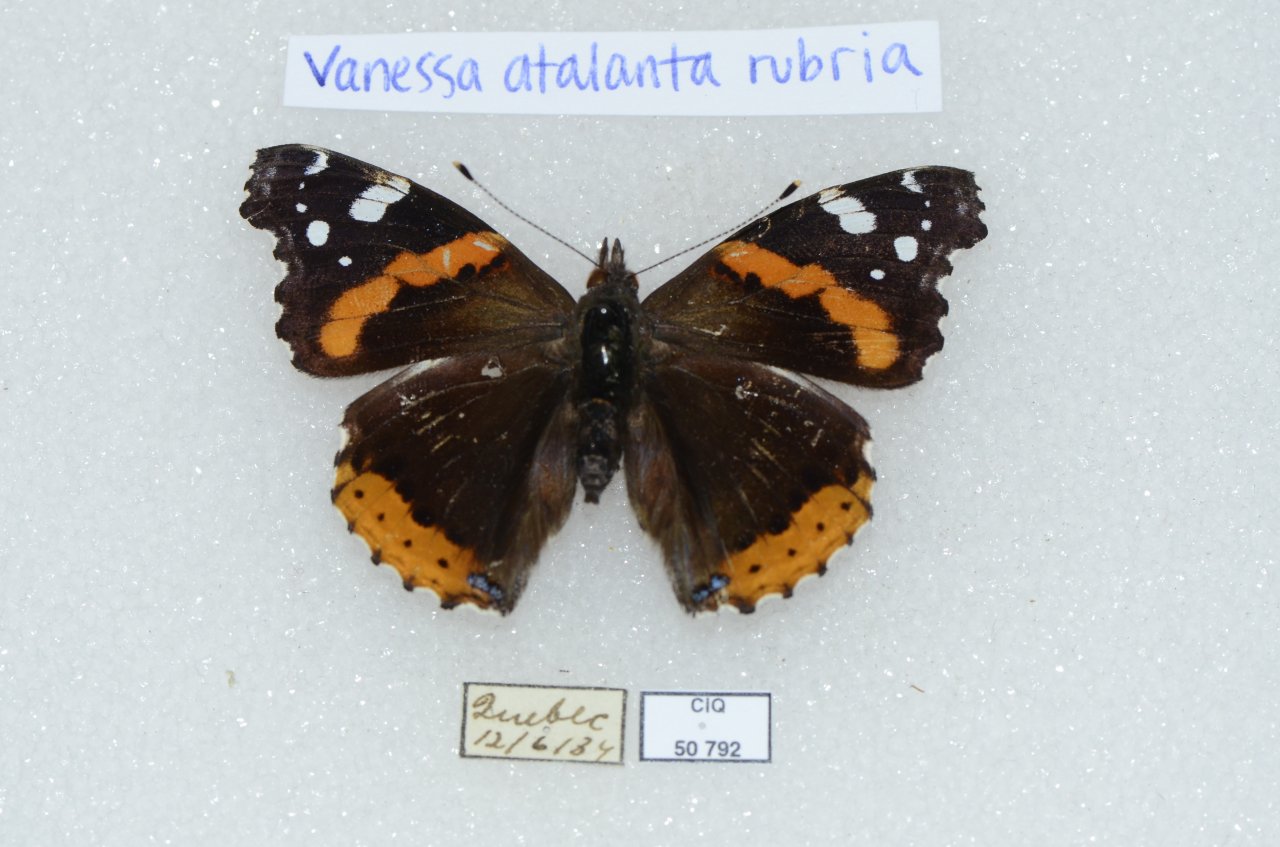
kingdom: Animalia
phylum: Arthropoda
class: Insecta
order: Lepidoptera
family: Nymphalidae
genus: Vanessa
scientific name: Vanessa atalanta
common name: Red Admiral
